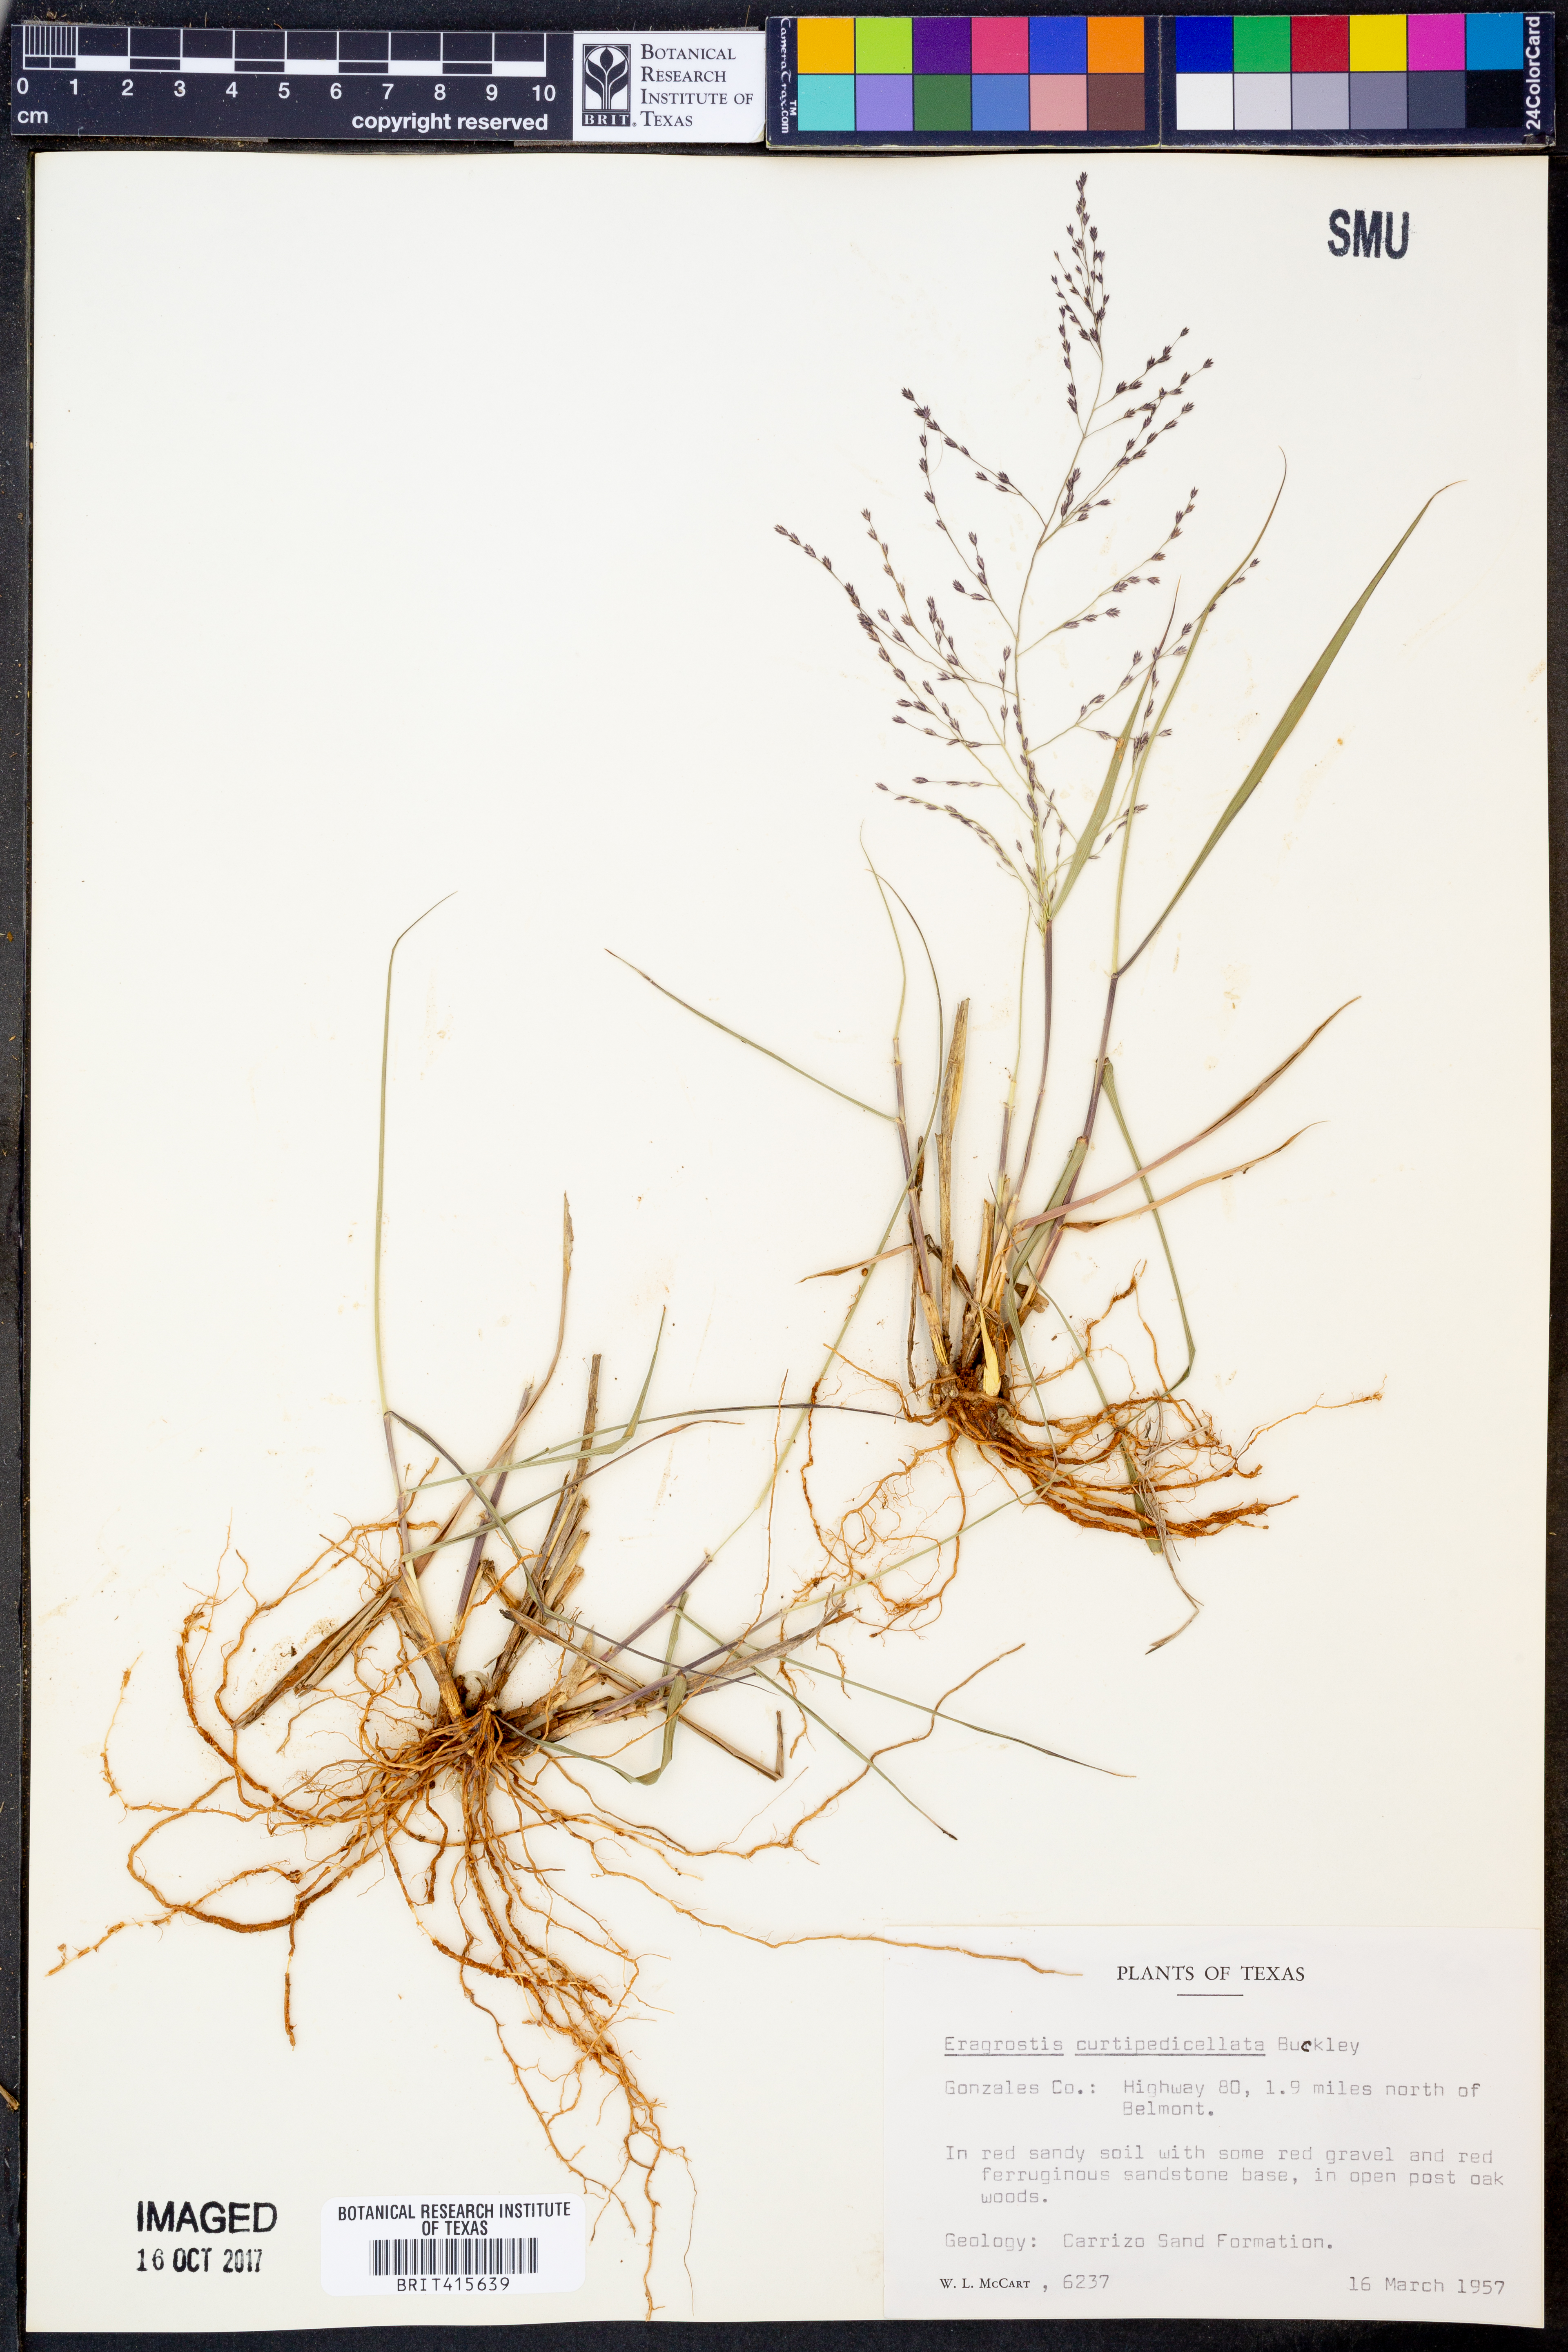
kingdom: Plantae
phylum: Tracheophyta
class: Liliopsida
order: Poales
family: Poaceae
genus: Eragrostis
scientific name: Eragrostis curtipedicellata
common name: Gummy love grass
